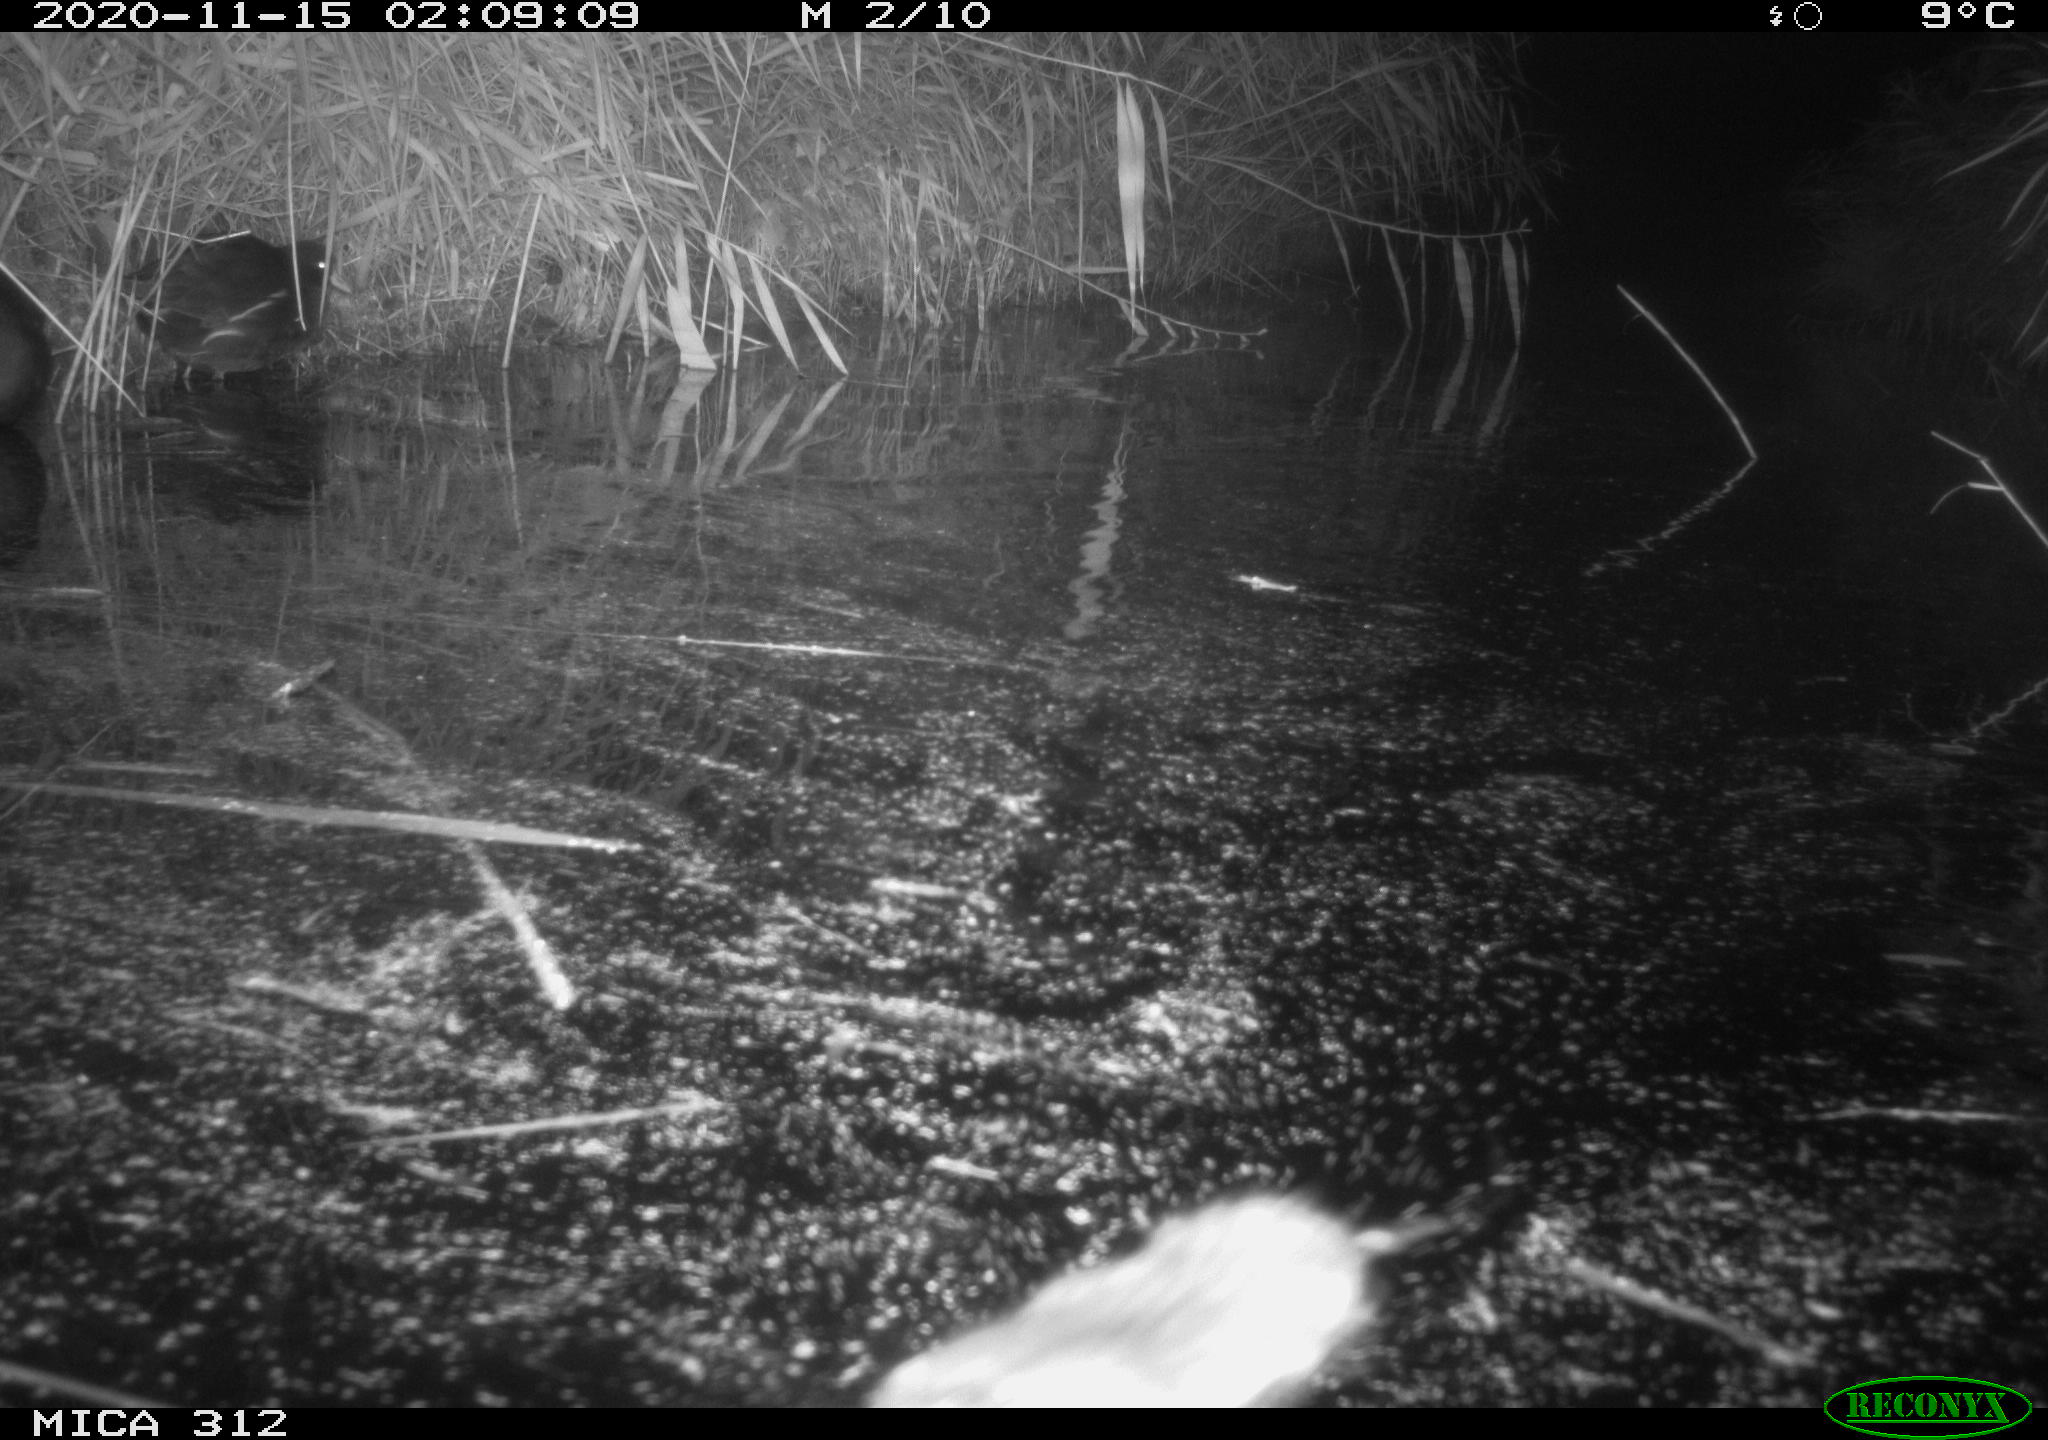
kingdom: Animalia
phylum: Chordata
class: Aves
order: Gruiformes
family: Rallidae
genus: Gallinula
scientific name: Gallinula chloropus
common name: Common moorhen
